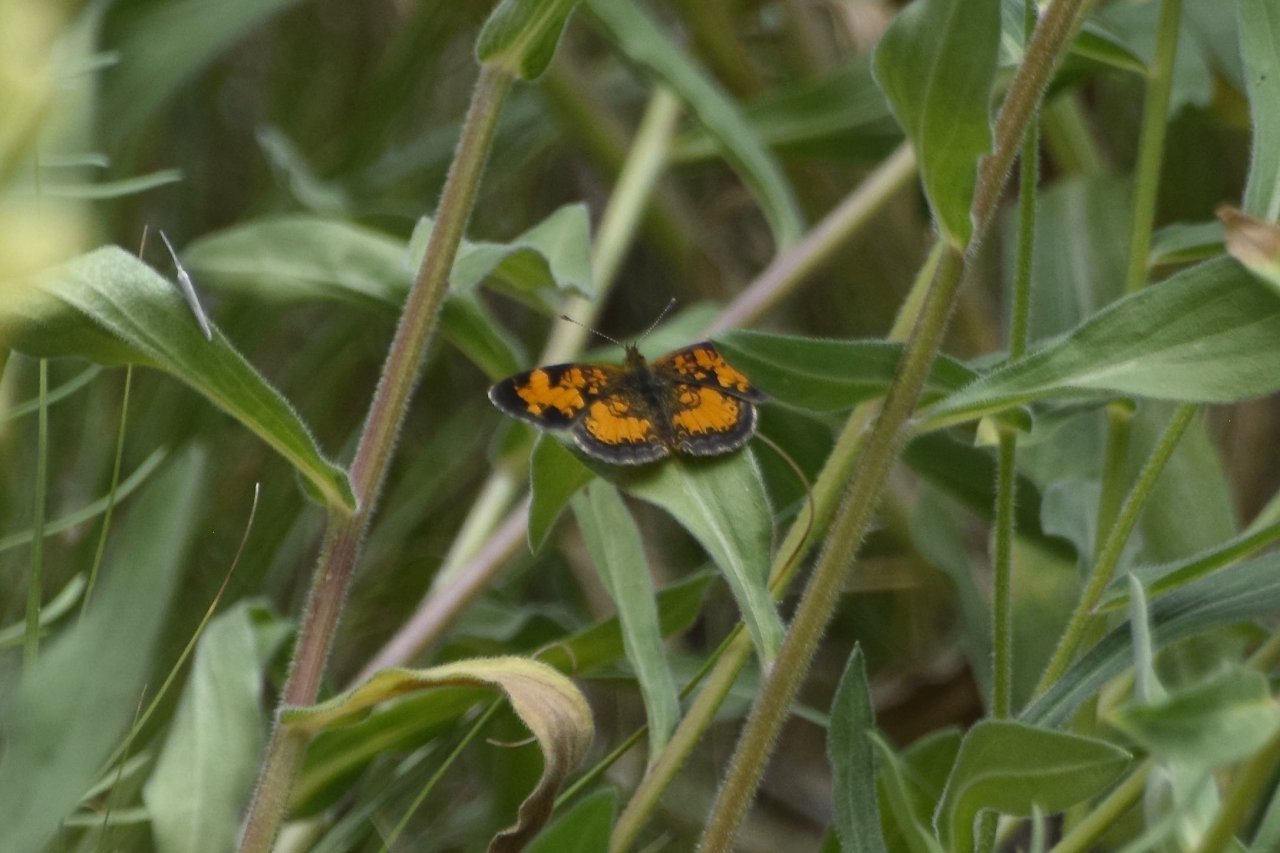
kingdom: Animalia
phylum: Arthropoda
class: Insecta
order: Lepidoptera
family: Nymphalidae
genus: Phyciodes
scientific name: Phyciodes tharos
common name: Northern Crescent
